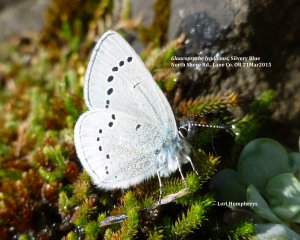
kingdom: Animalia
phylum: Arthropoda
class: Insecta
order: Lepidoptera
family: Lycaenidae
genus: Glaucopsyche
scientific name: Glaucopsyche lygdamus
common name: Silvery Blue
